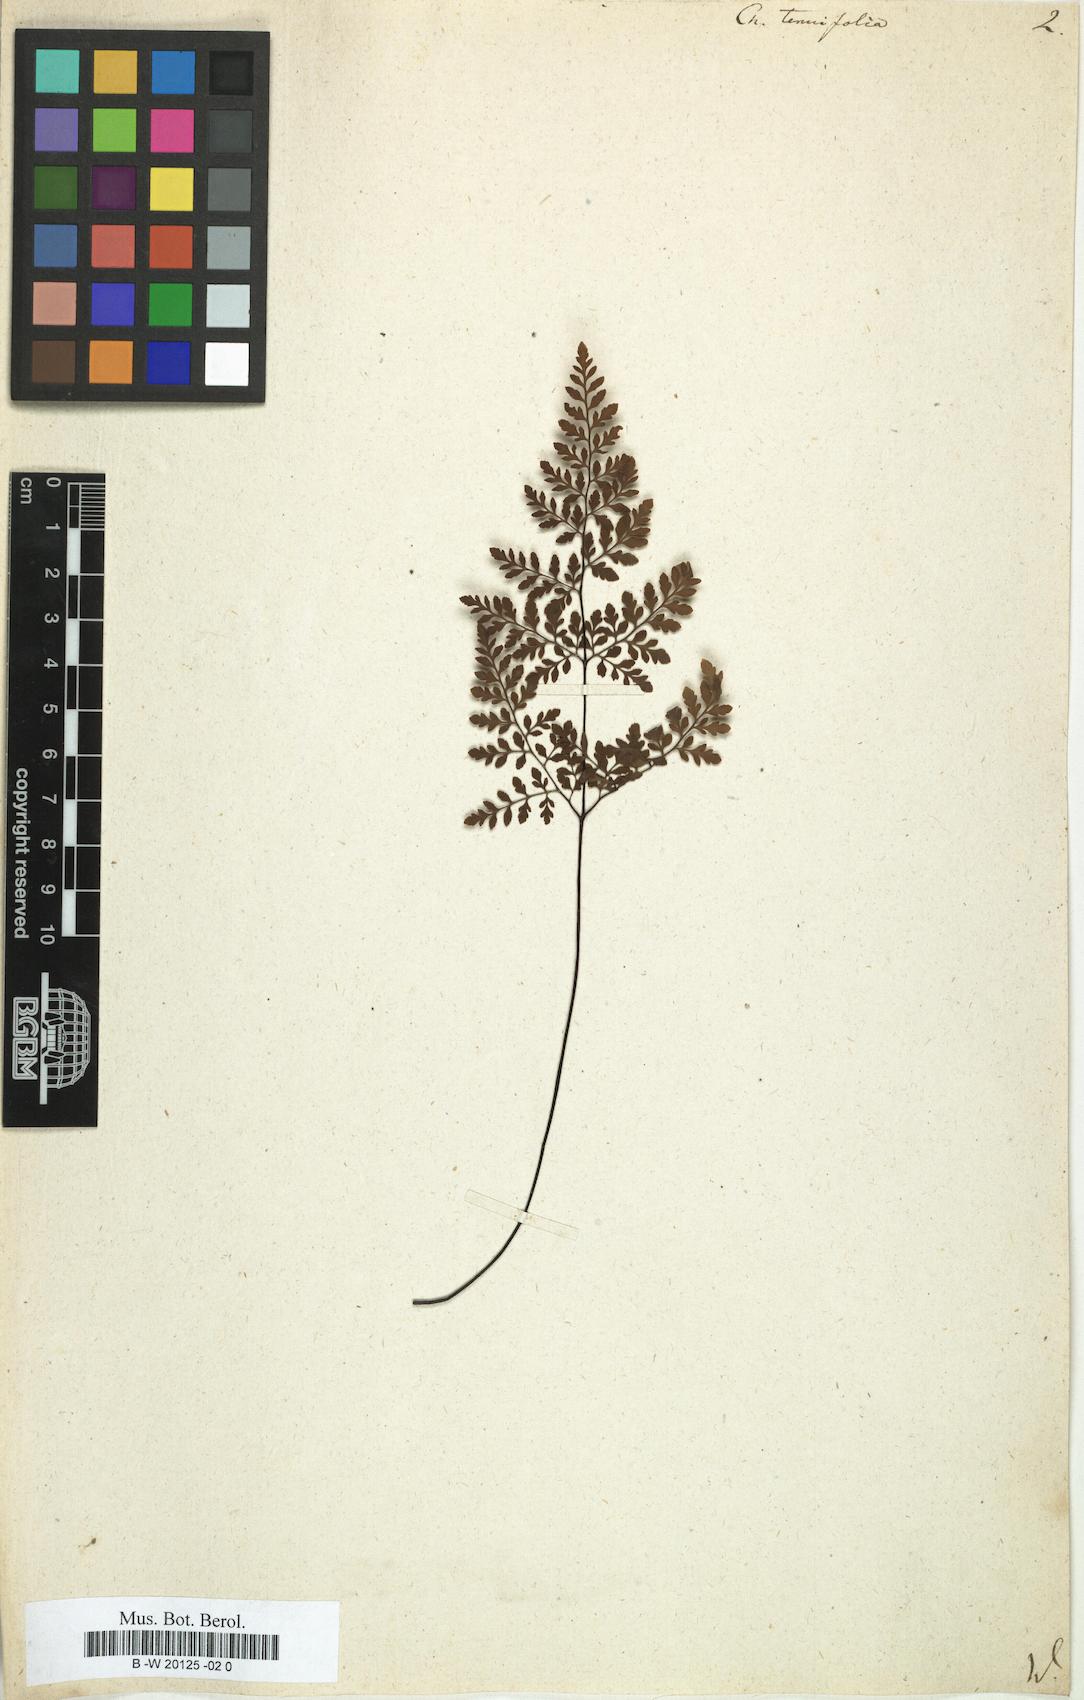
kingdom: Plantae
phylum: Tracheophyta
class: Polypodiopsida
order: Polypodiales
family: Pteridaceae
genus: Cheilanthes
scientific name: Cheilanthes tenuifolia
